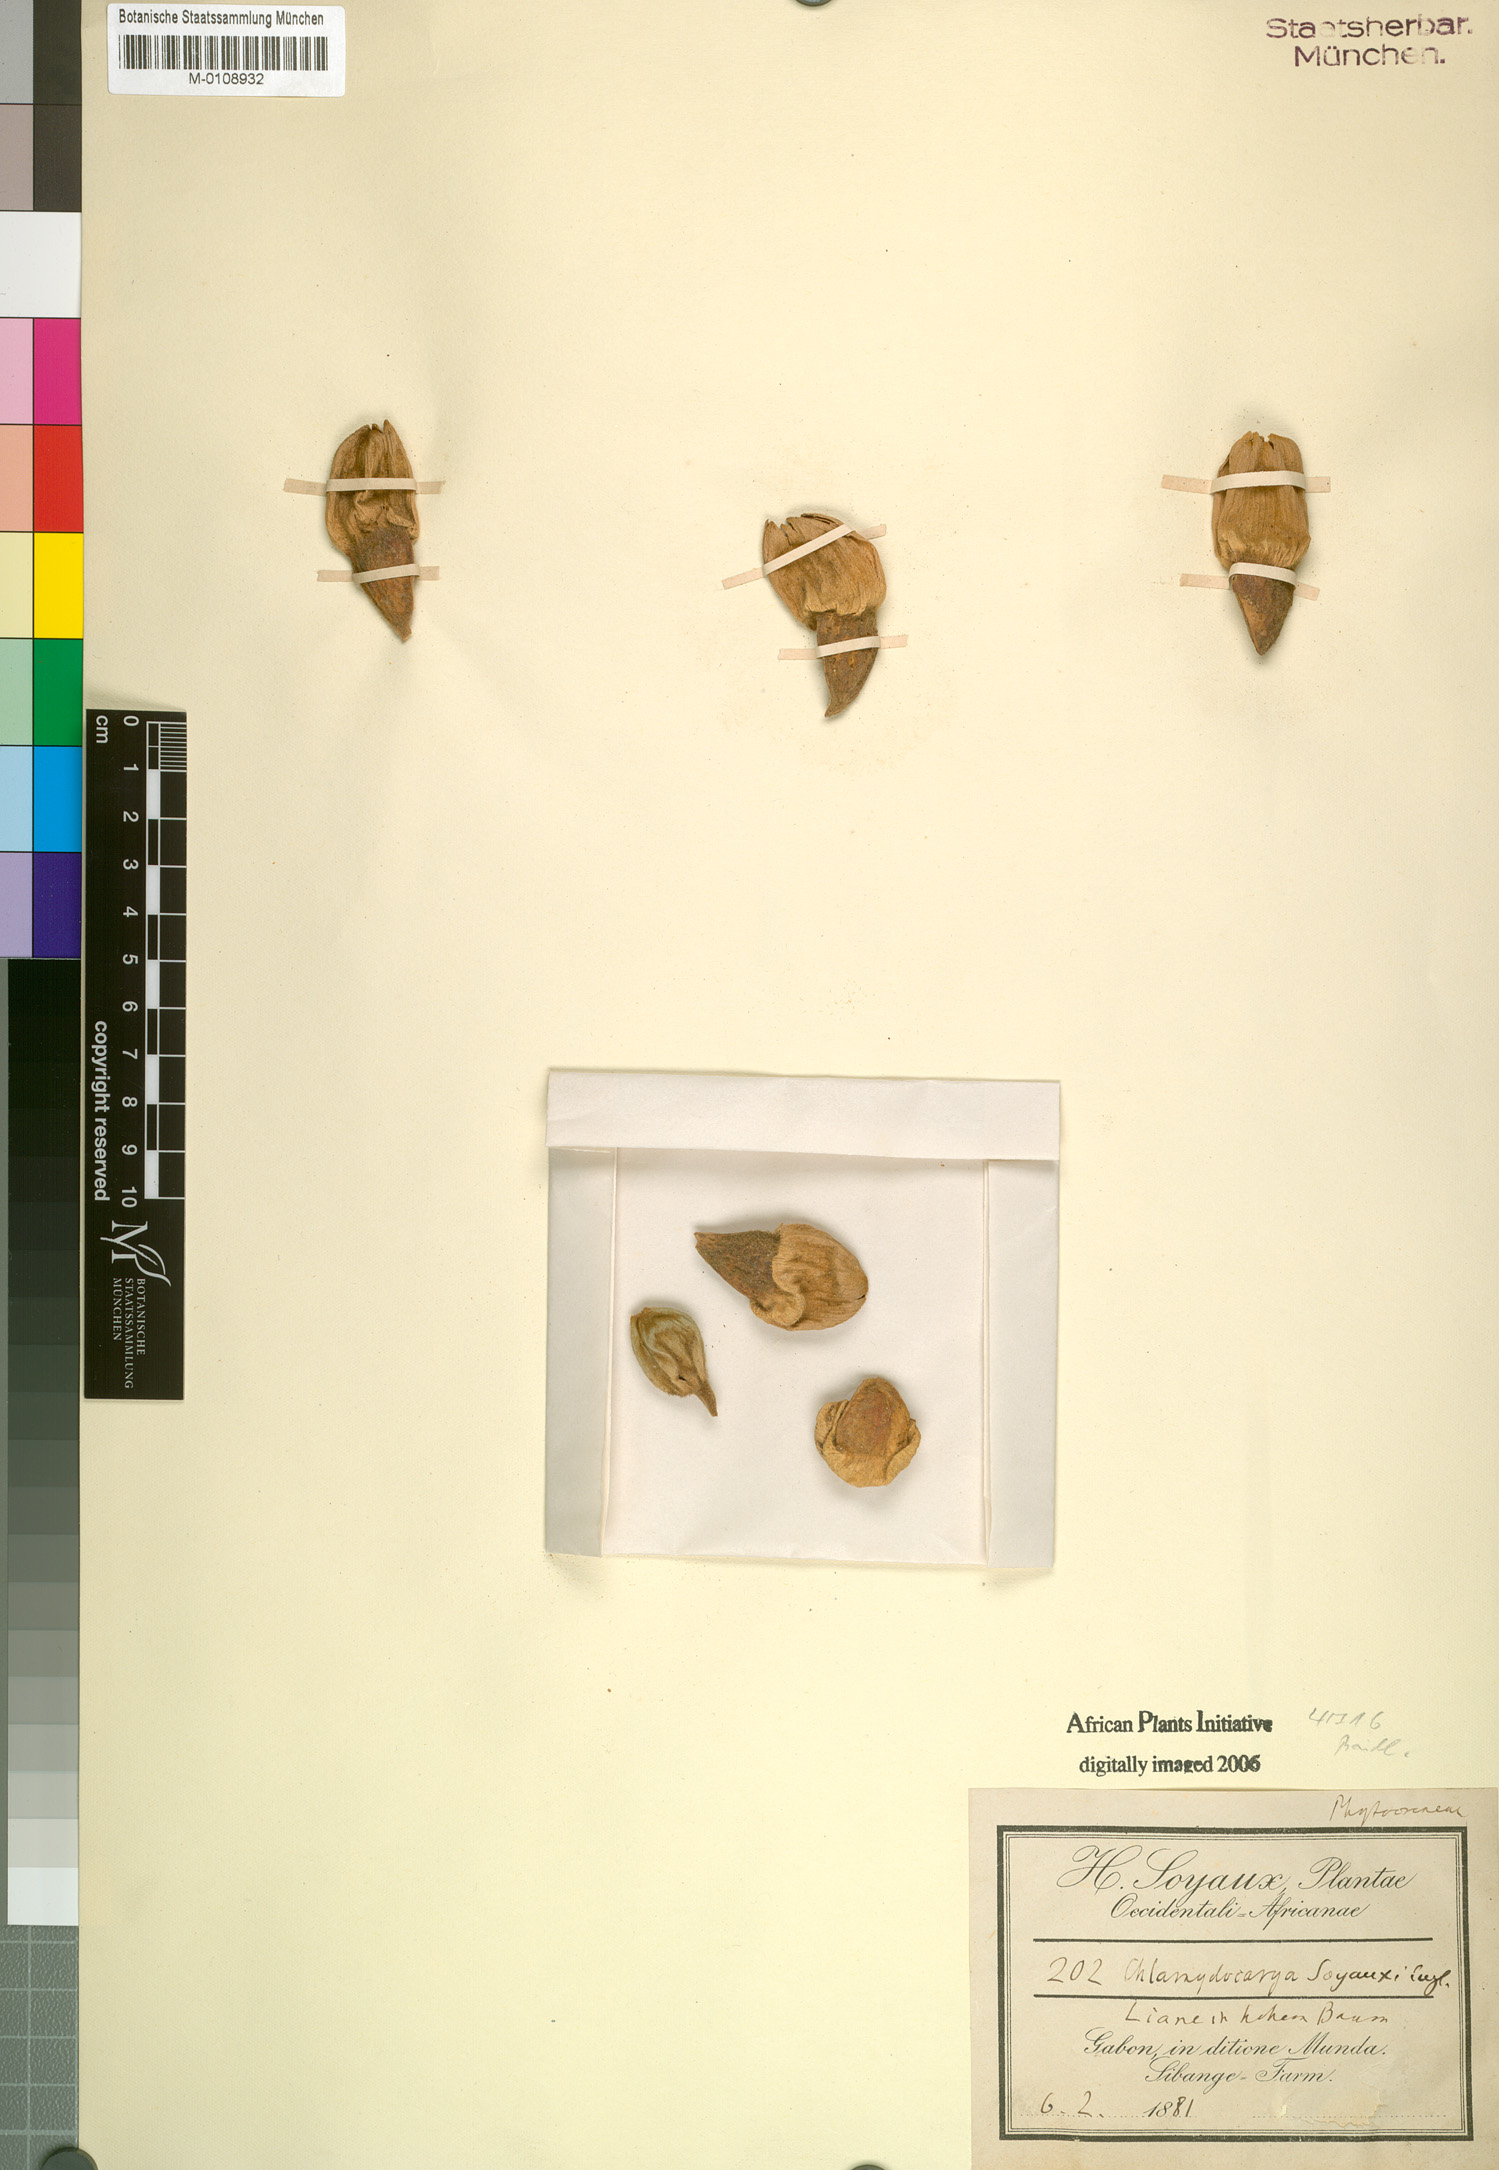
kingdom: Plantae
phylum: Tracheophyta
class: Magnoliopsida
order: Icacinales
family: Icacinaceae
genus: Pyrenacantha
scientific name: Pyrenacantha soyauxii
